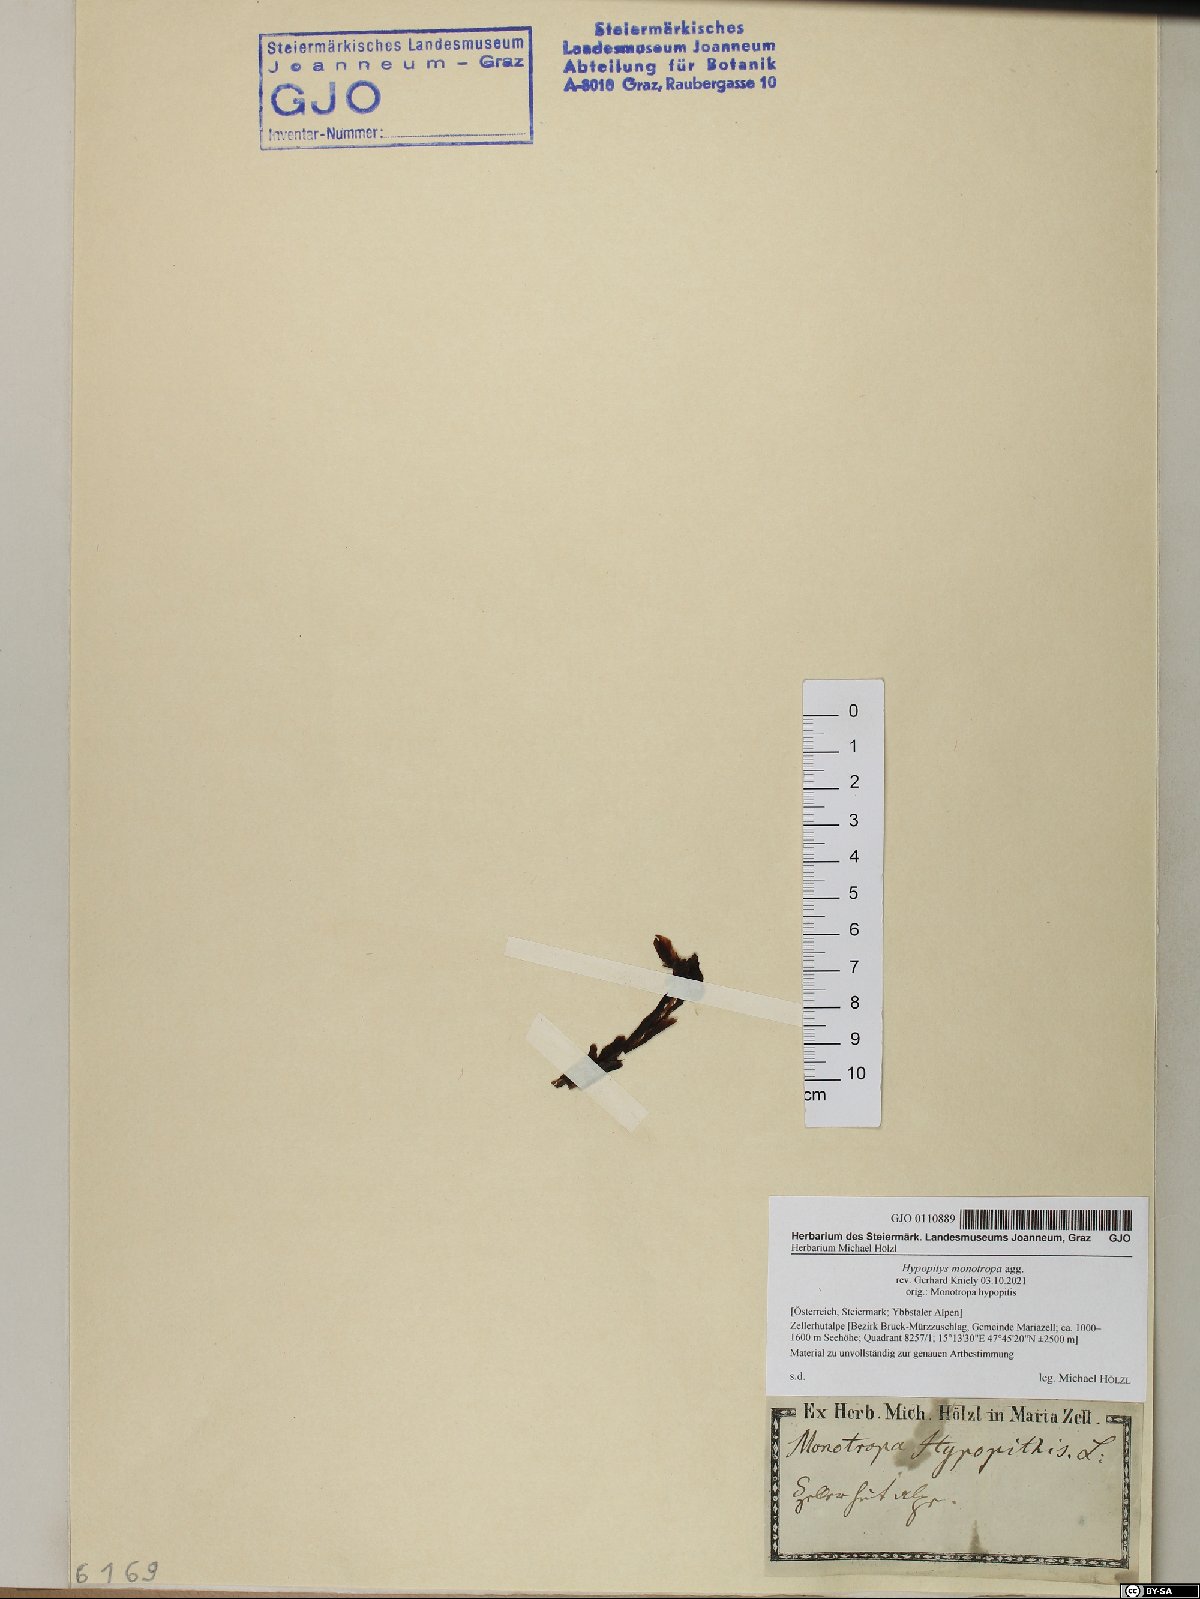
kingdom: Plantae
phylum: Tracheophyta
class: Magnoliopsida
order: Ericales
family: Ericaceae
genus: Hypopitys
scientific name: Hypopitys monotropa
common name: Yellow bird's-nest
